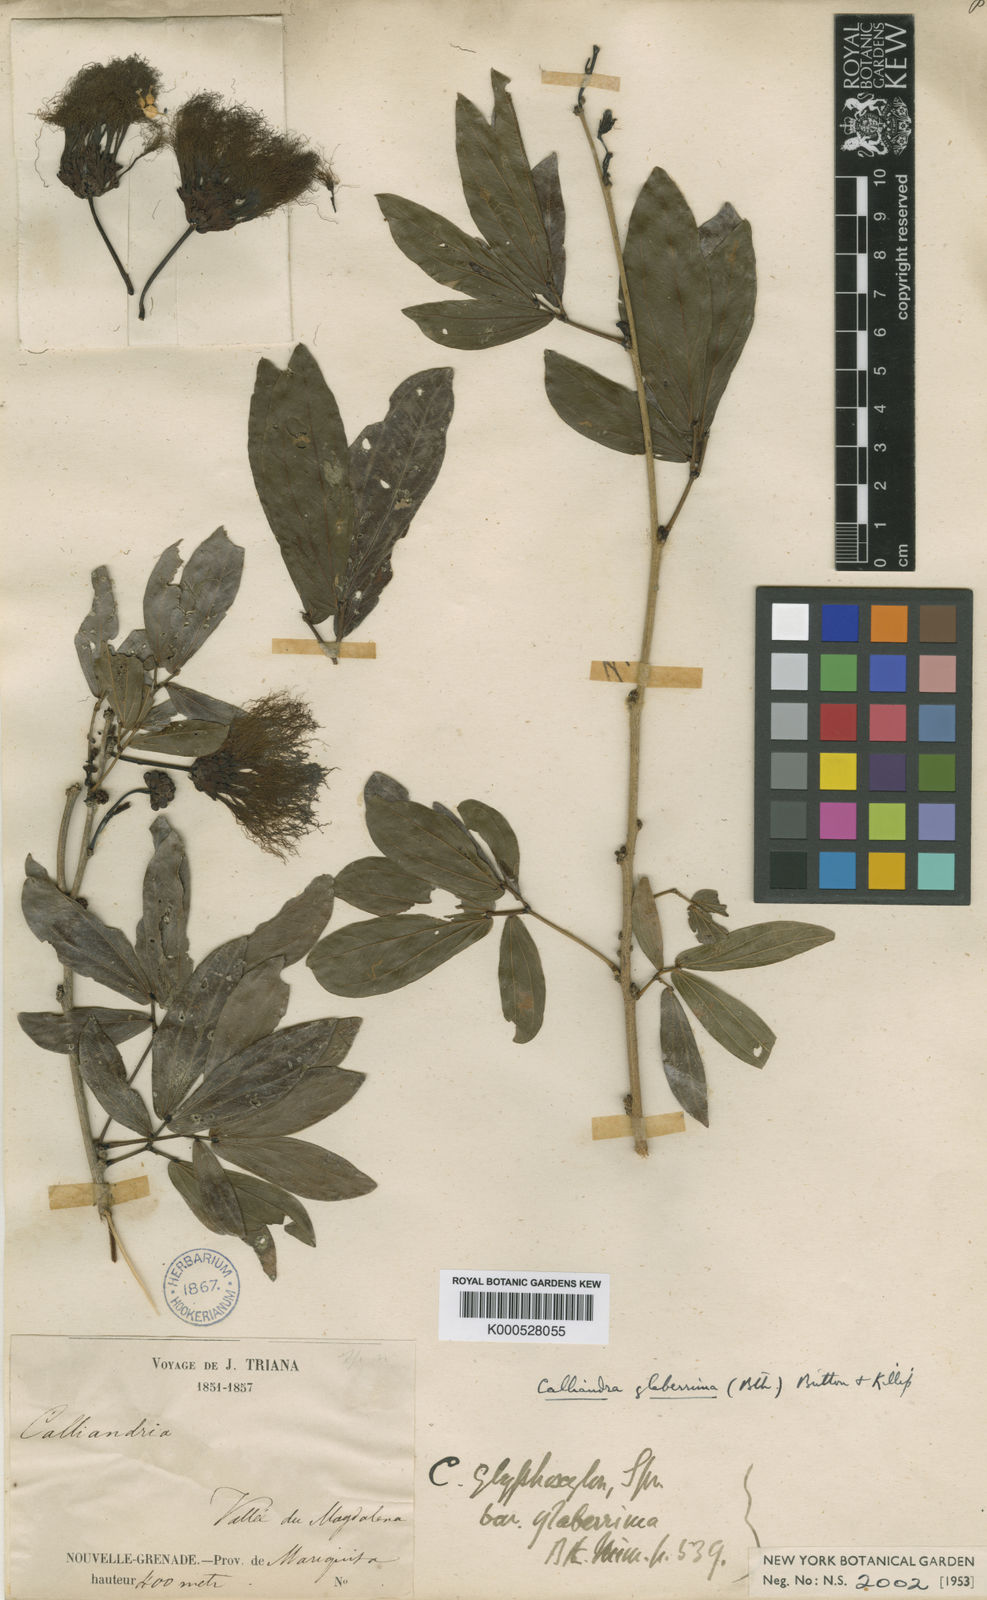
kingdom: Plantae
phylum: Tracheophyta
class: Magnoliopsida
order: Fabales
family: Fabaceae
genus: Calliandra
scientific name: Calliandra coriacea
